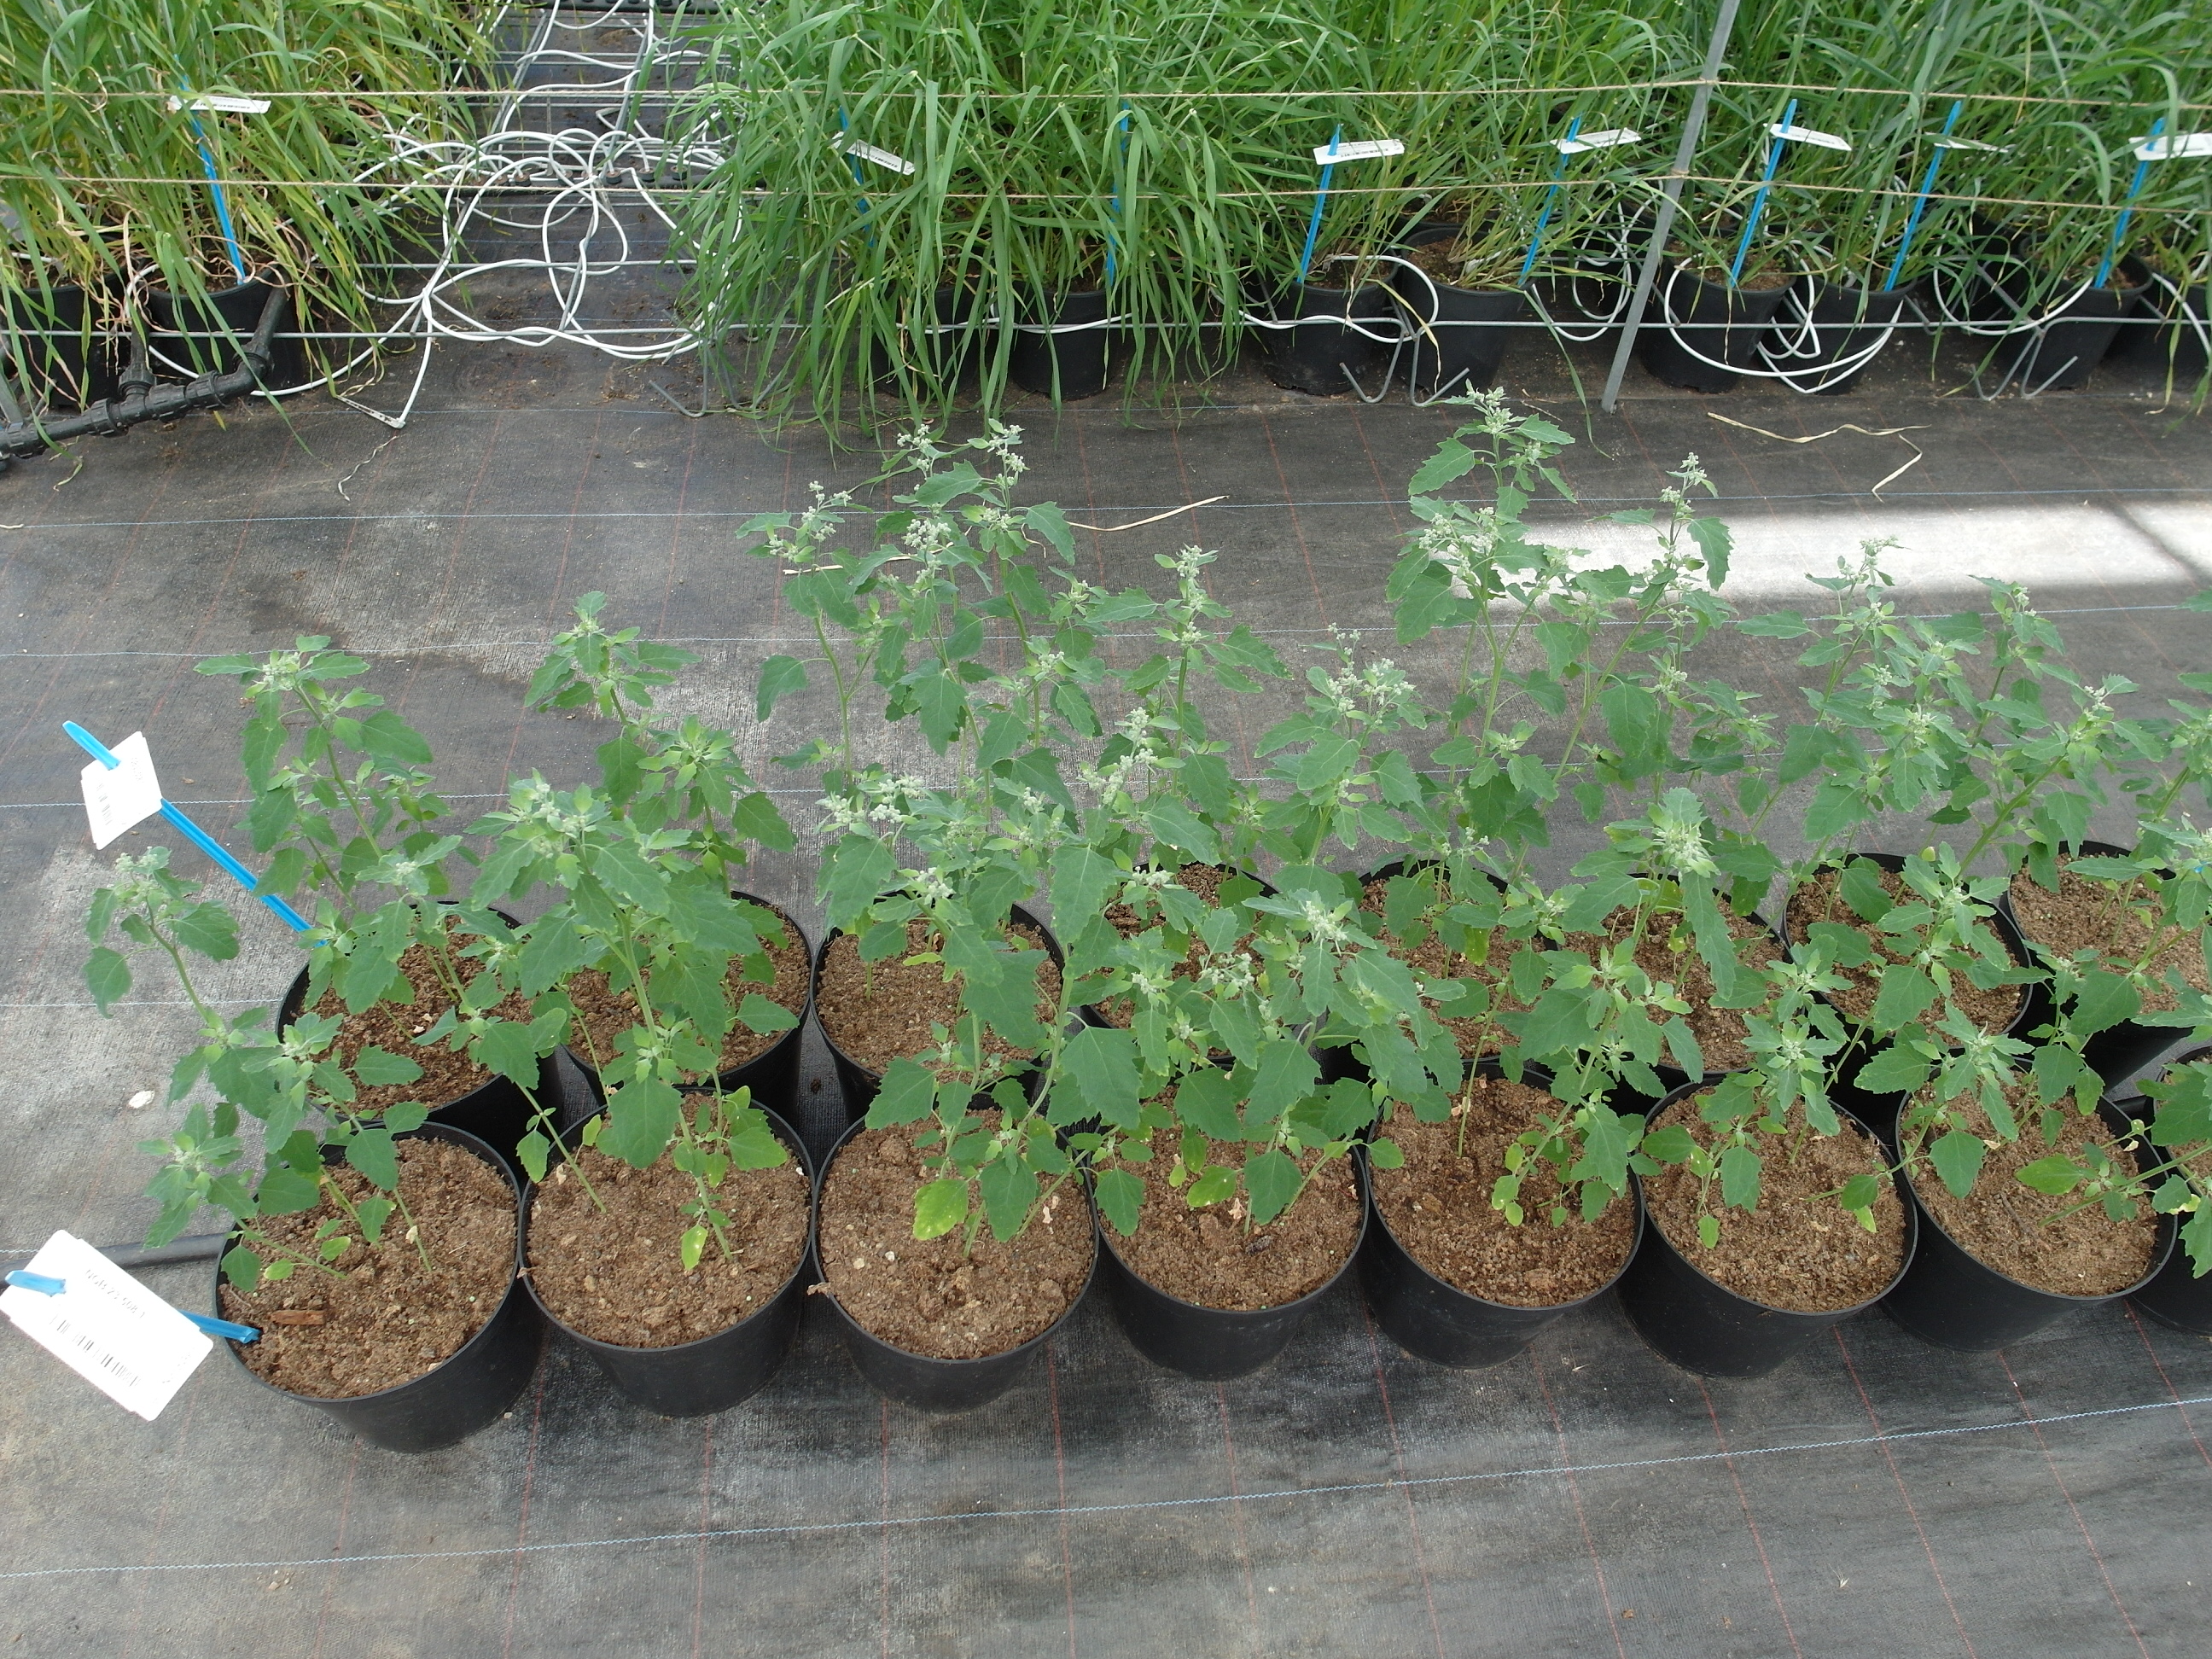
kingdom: Plantae
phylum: Tracheophyta
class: Magnoliopsida
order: Caryophyllales
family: Amaranthaceae
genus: Chenopodium
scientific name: Chenopodium album
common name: Fat-hen
